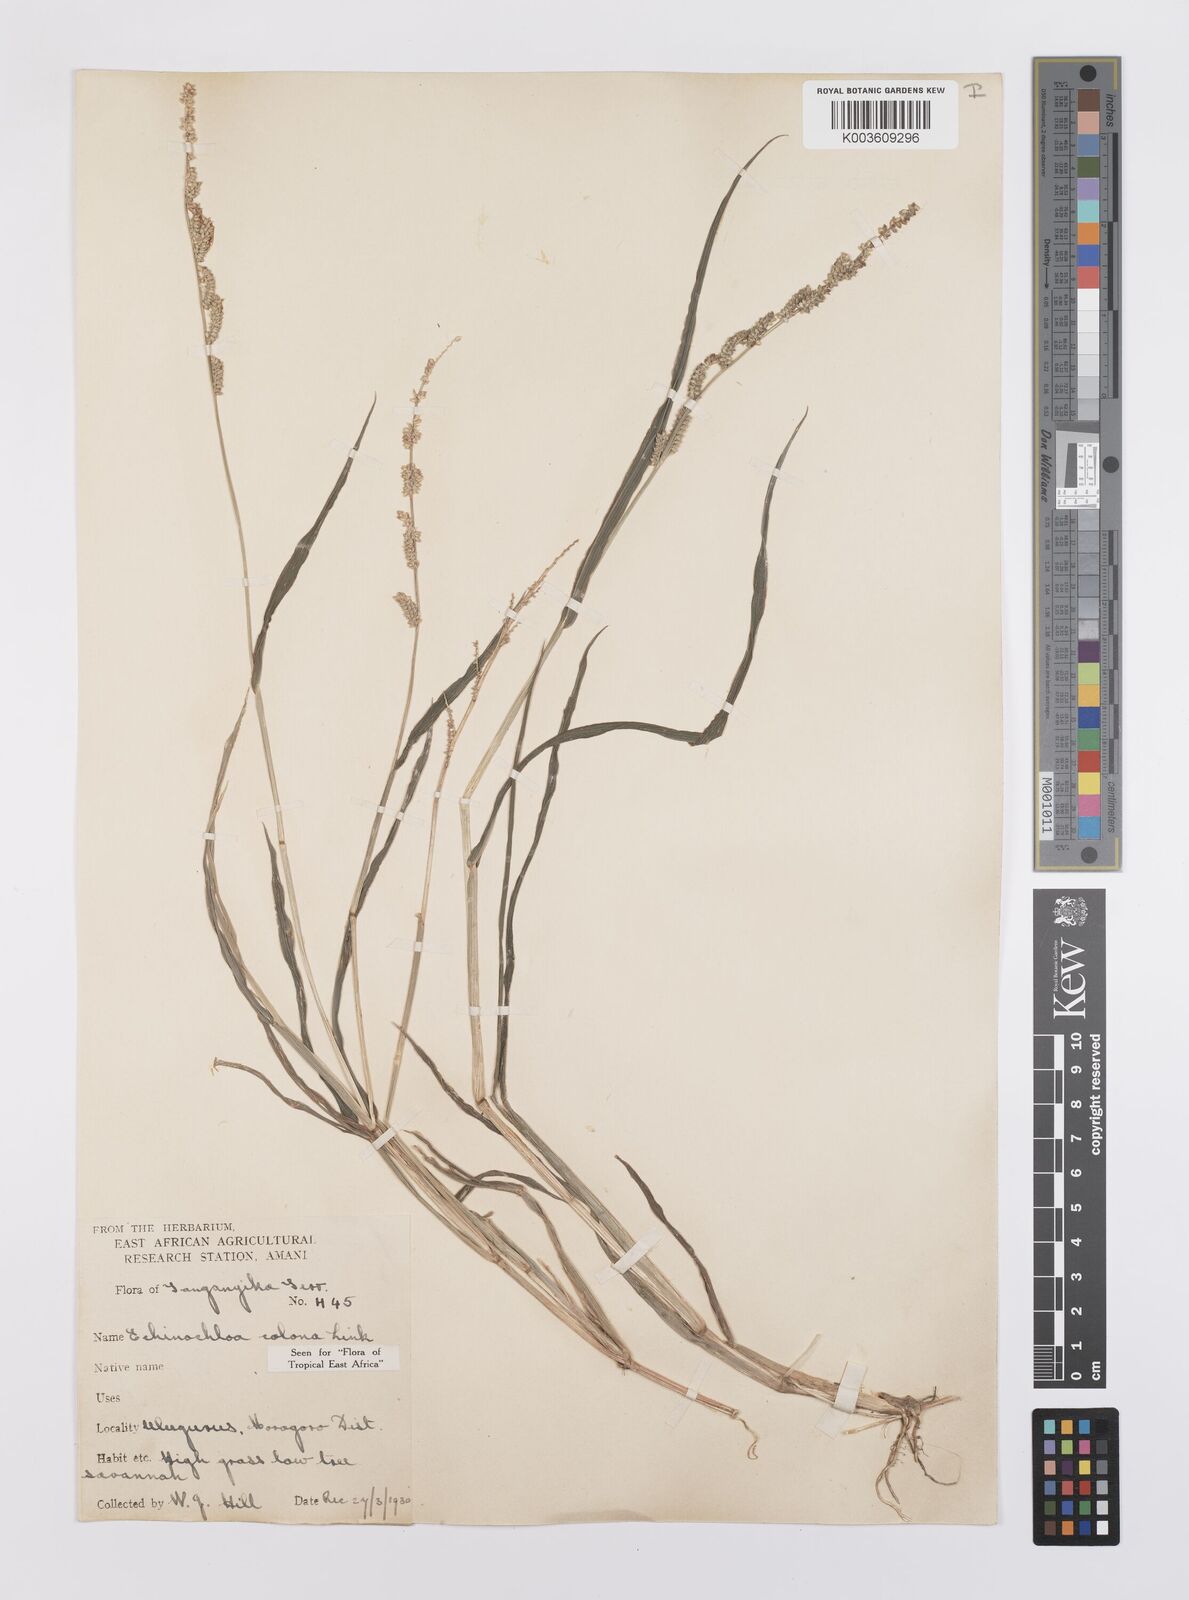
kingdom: Plantae
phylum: Tracheophyta
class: Liliopsida
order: Poales
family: Poaceae
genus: Echinochloa
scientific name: Echinochloa colonum
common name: Jungle rice
